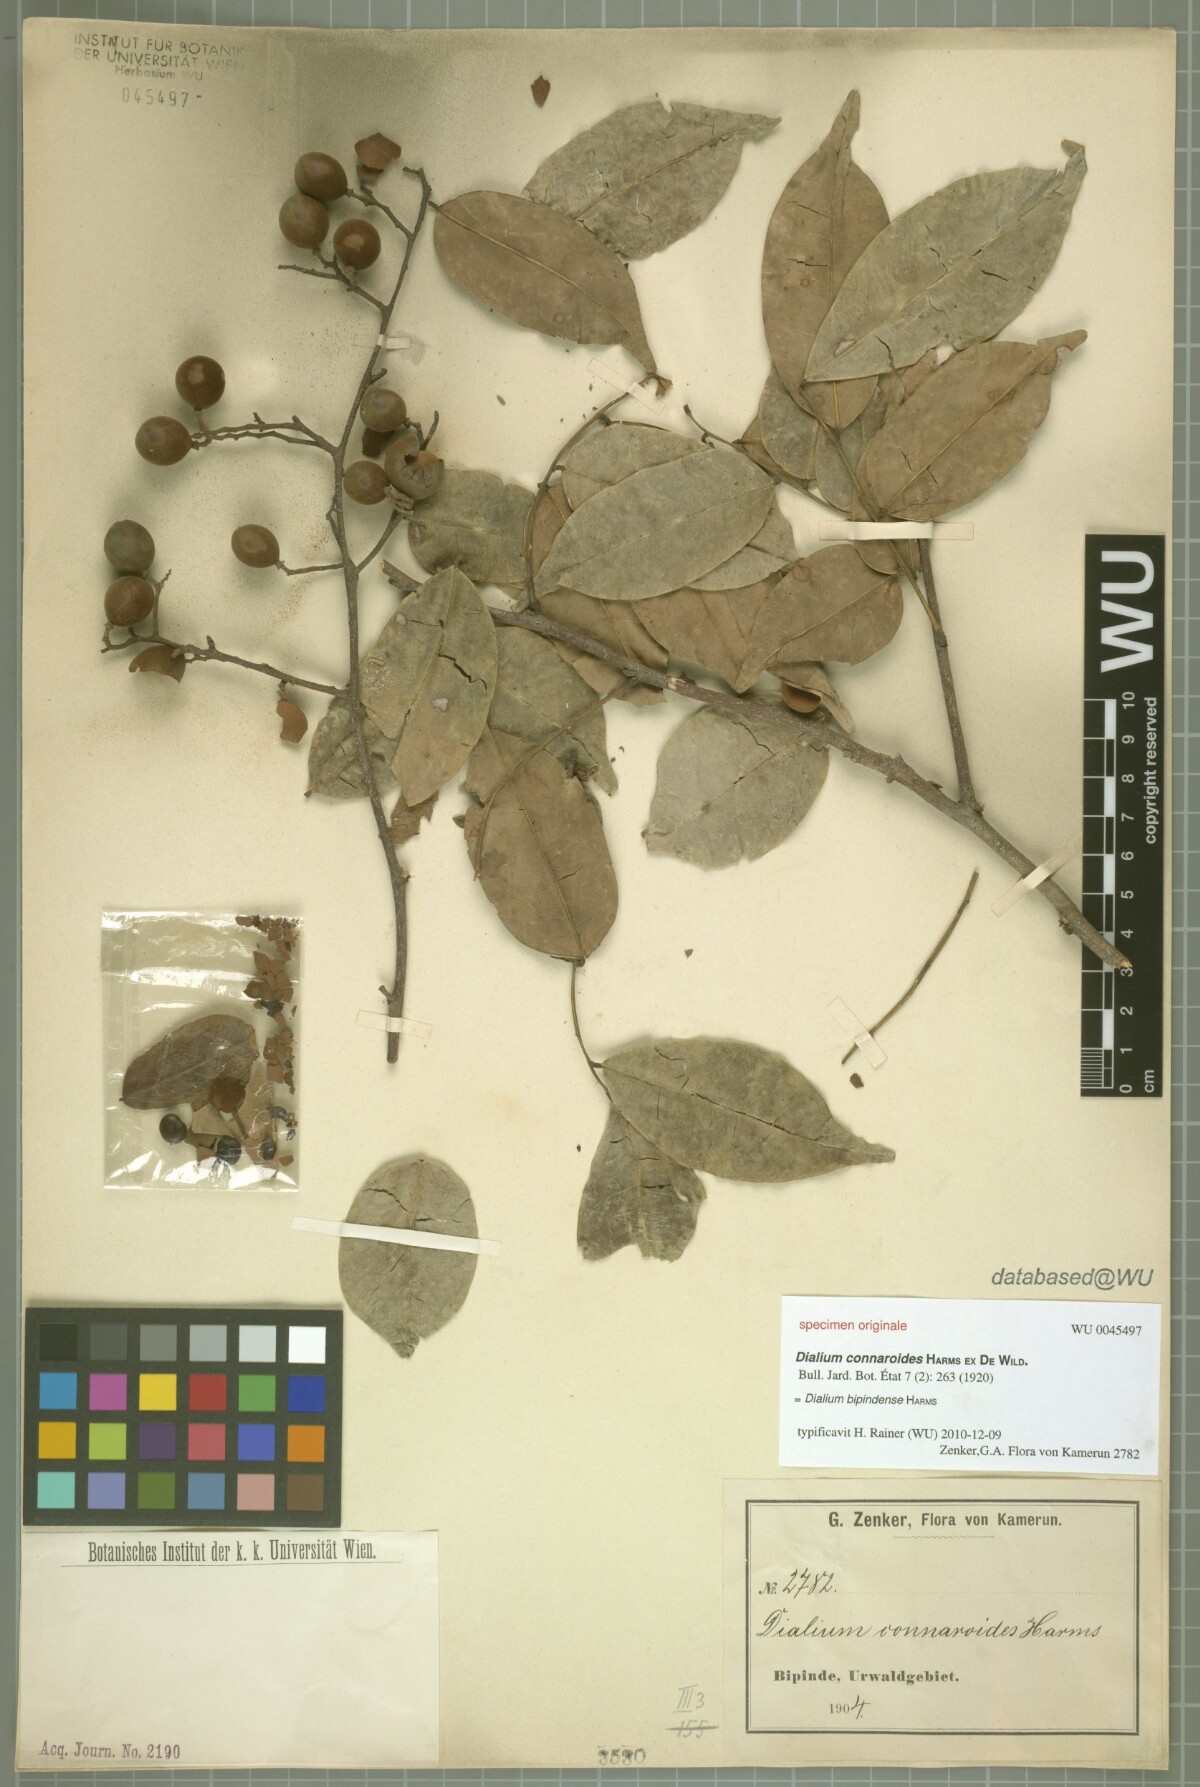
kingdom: Plantae
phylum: Tracheophyta
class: Magnoliopsida
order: Fabales
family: Fabaceae
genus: Dialium
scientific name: Dialium bipindense
